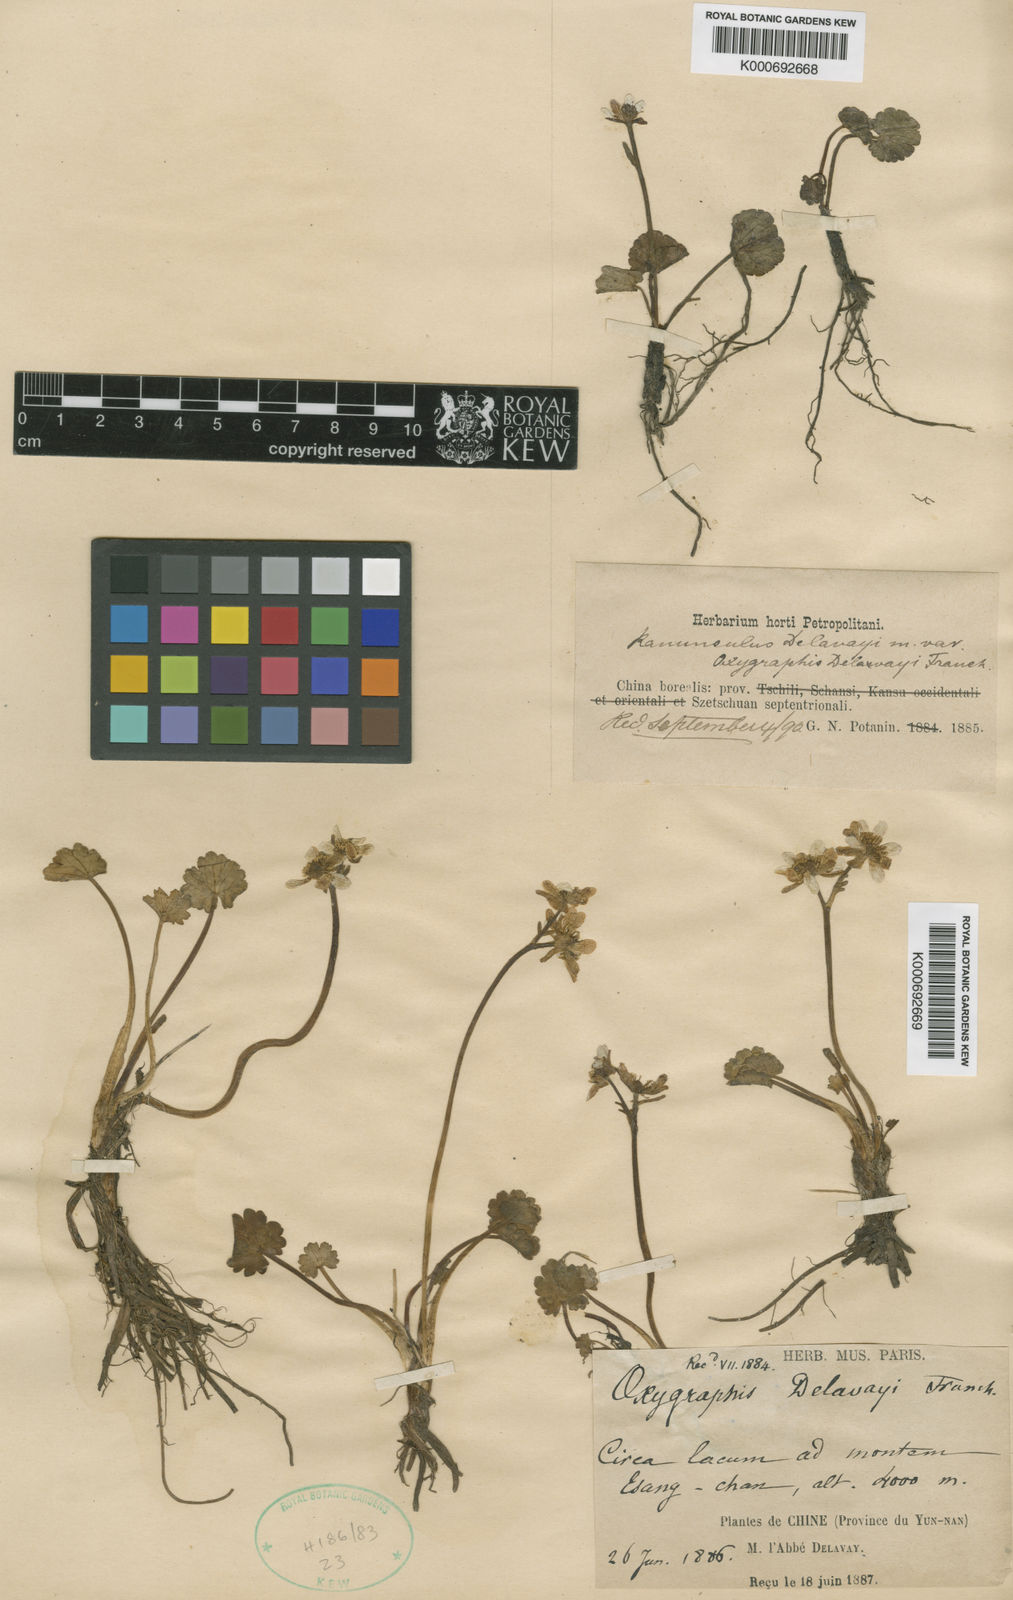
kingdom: Plantae
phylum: Tracheophyta
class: Magnoliopsida
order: Ranunculales
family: Ranunculaceae
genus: Ranunculus
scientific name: Ranunculus
